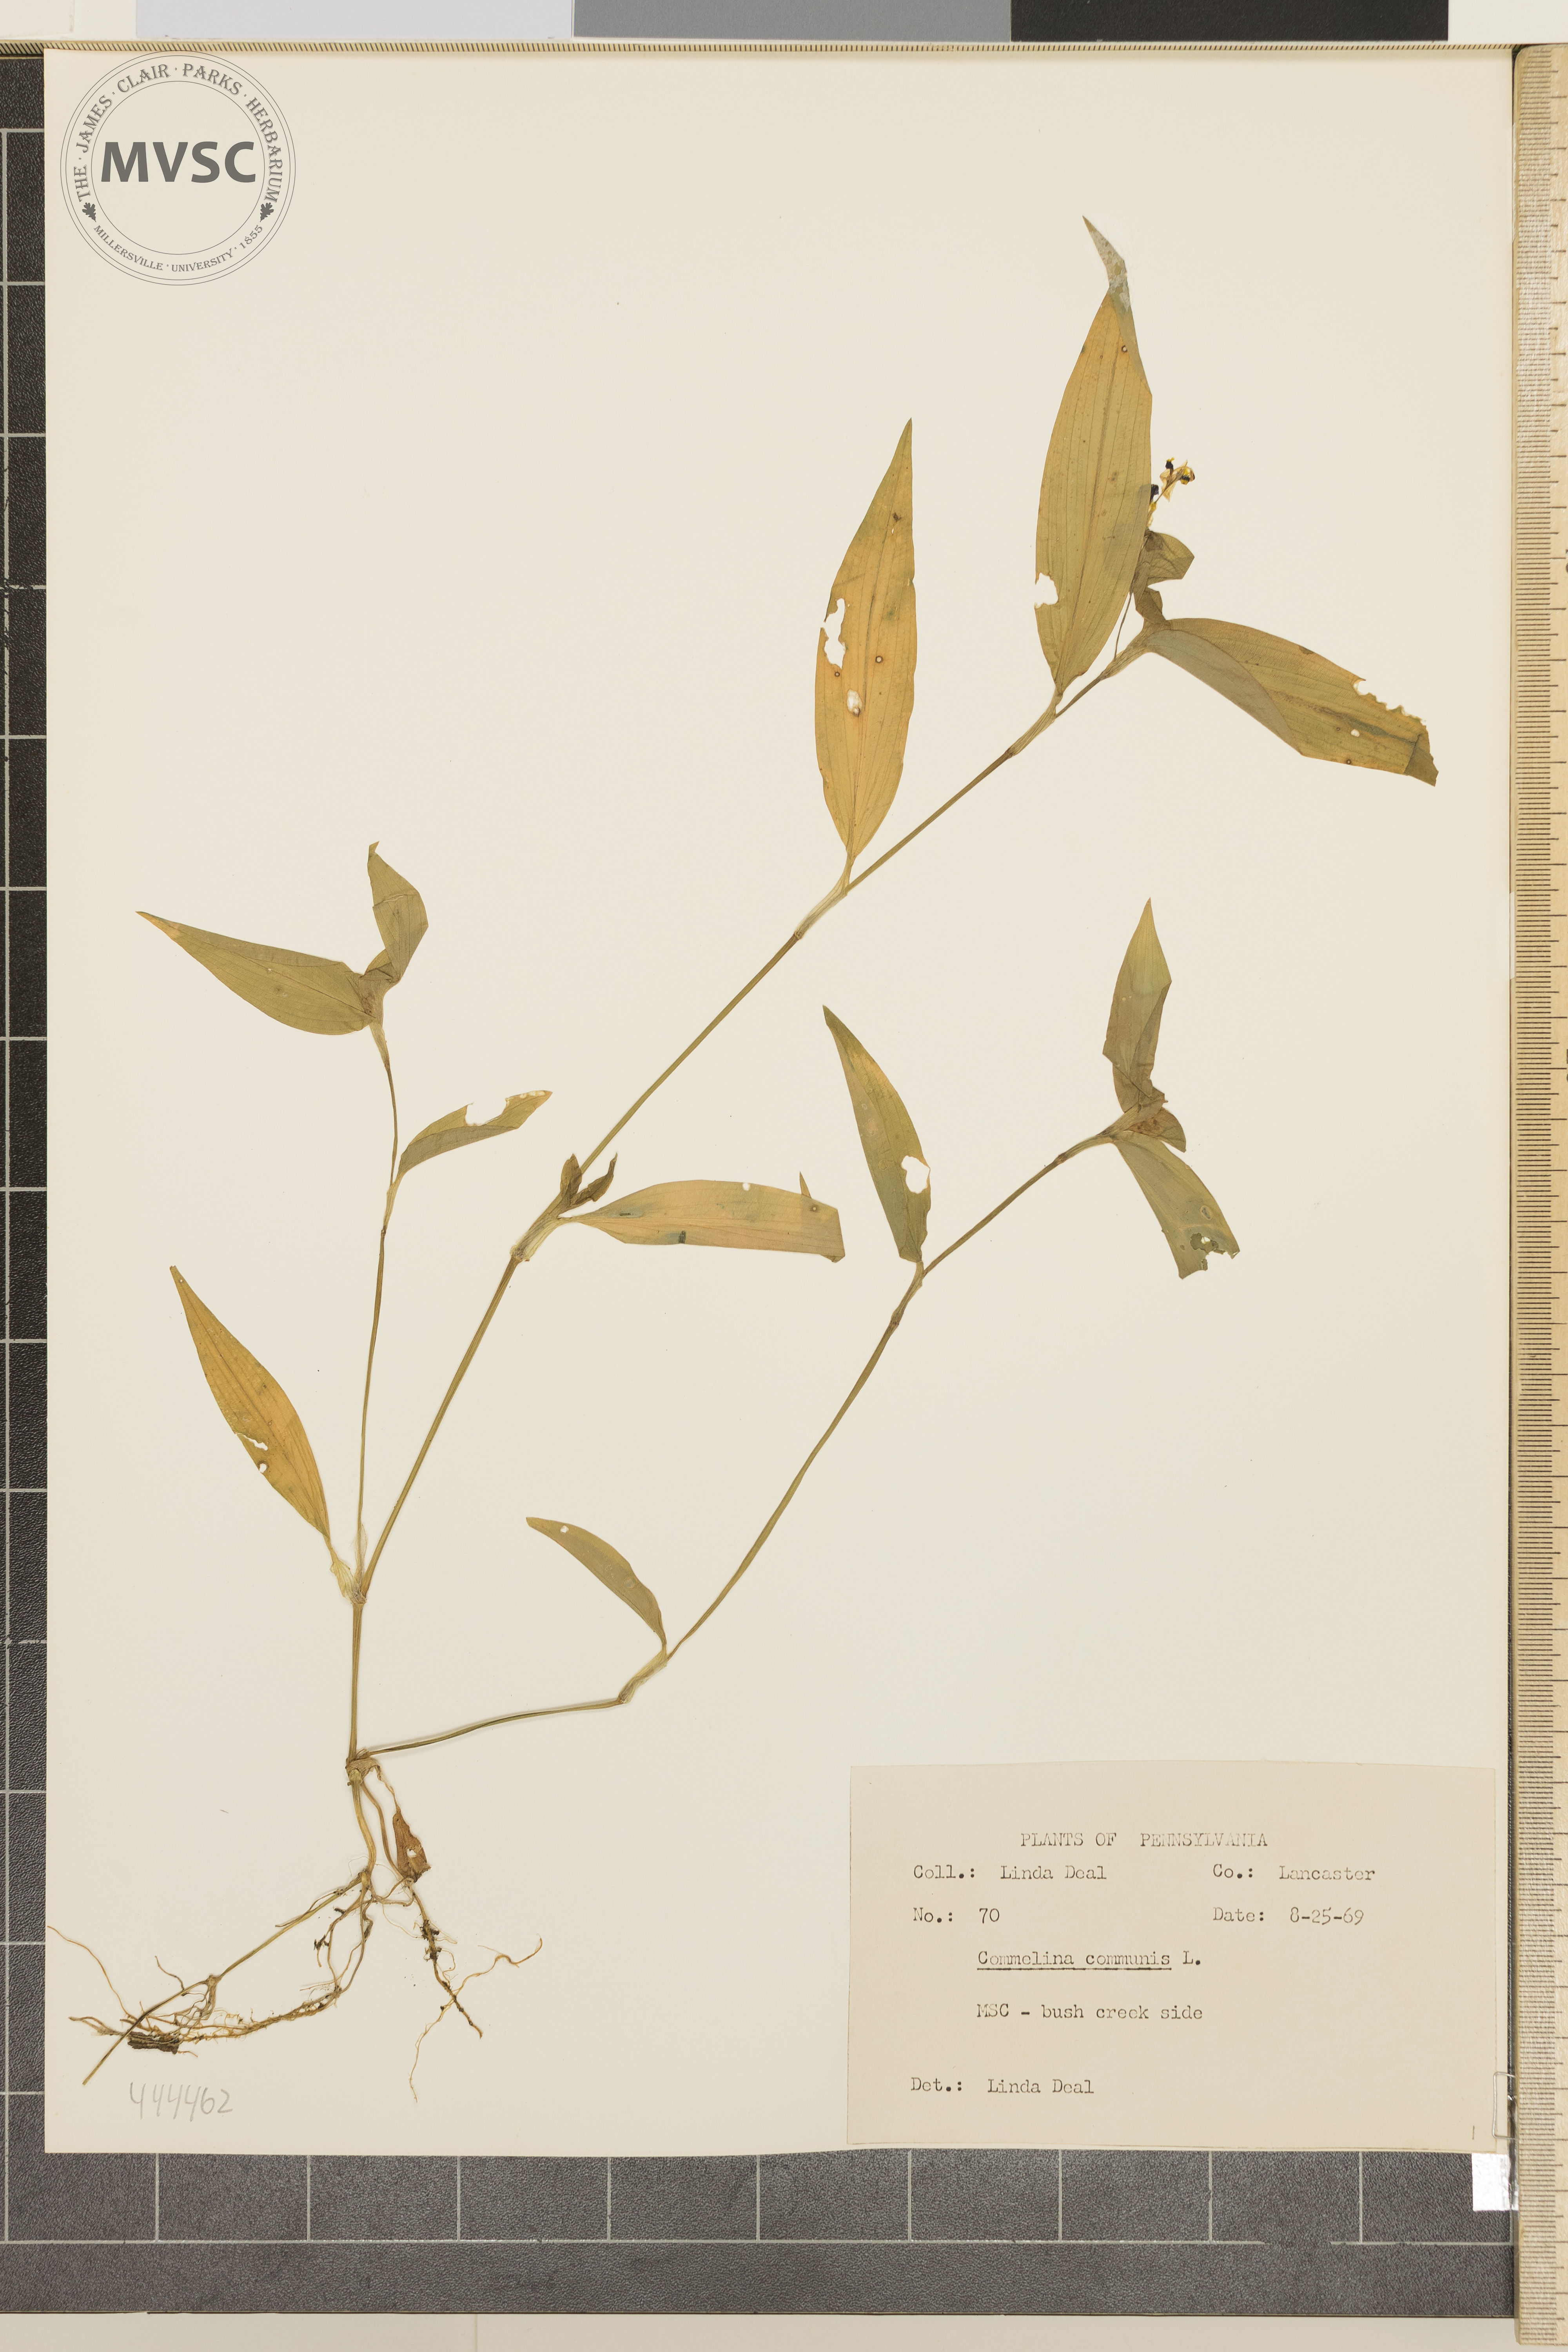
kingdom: Plantae
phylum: Tracheophyta
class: Liliopsida
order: Commelinales
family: Commelinaceae
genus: Commelina
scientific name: Commelina communis
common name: Asiatic dayflower
